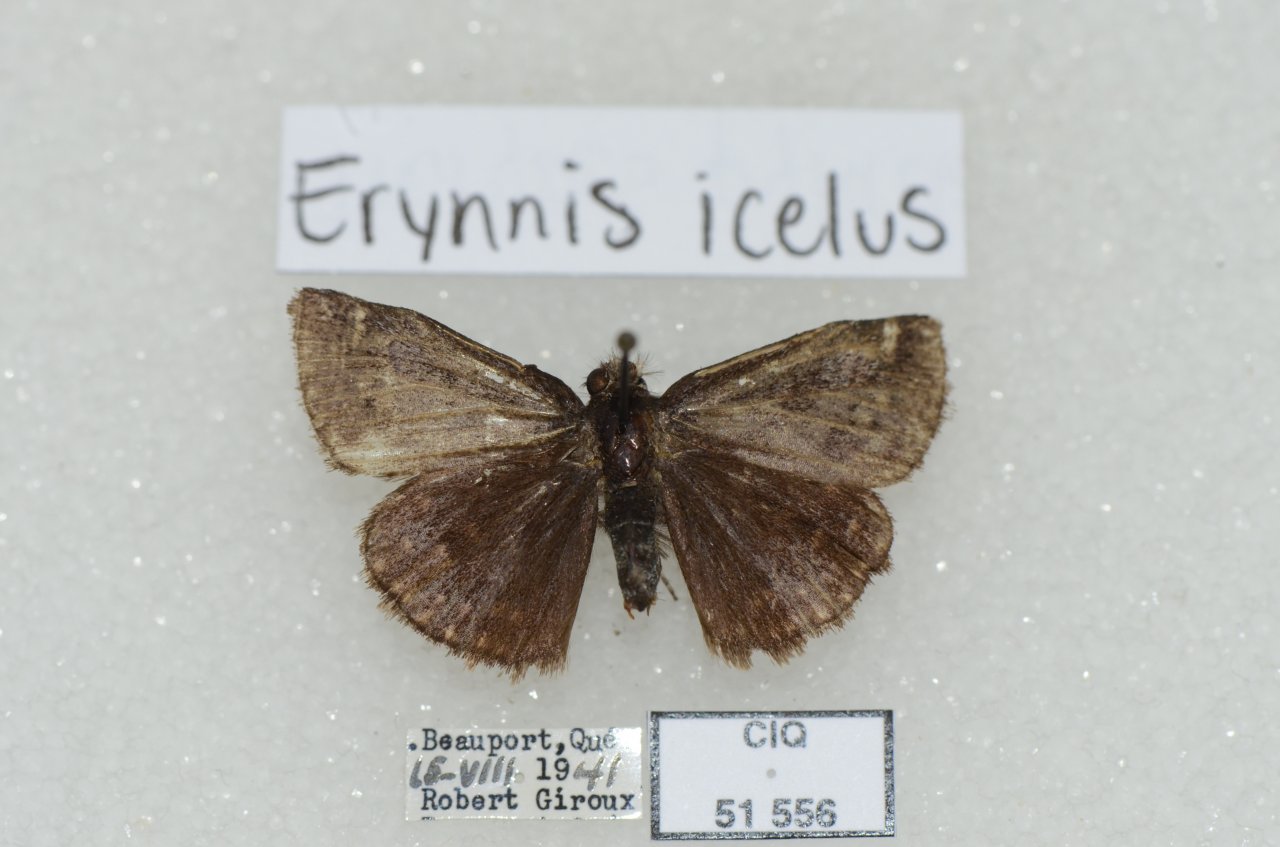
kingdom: Animalia
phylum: Arthropoda
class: Insecta
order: Lepidoptera
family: Hesperiidae
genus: Erynnis
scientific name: Erynnis icelus
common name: Dreamy Duskywing
